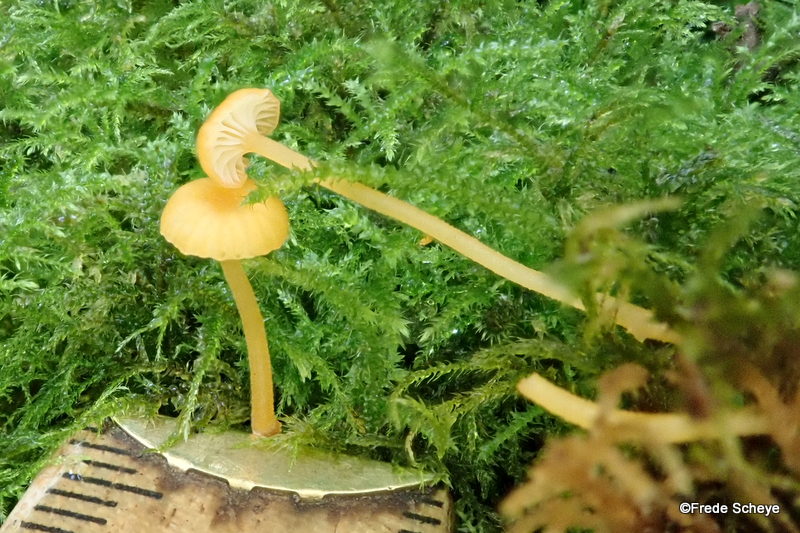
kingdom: Fungi
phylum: Basidiomycota
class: Agaricomycetes
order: Hymenochaetales
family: Rickenellaceae
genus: Rickenella
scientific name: Rickenella fibula
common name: orange mosnavlehat
